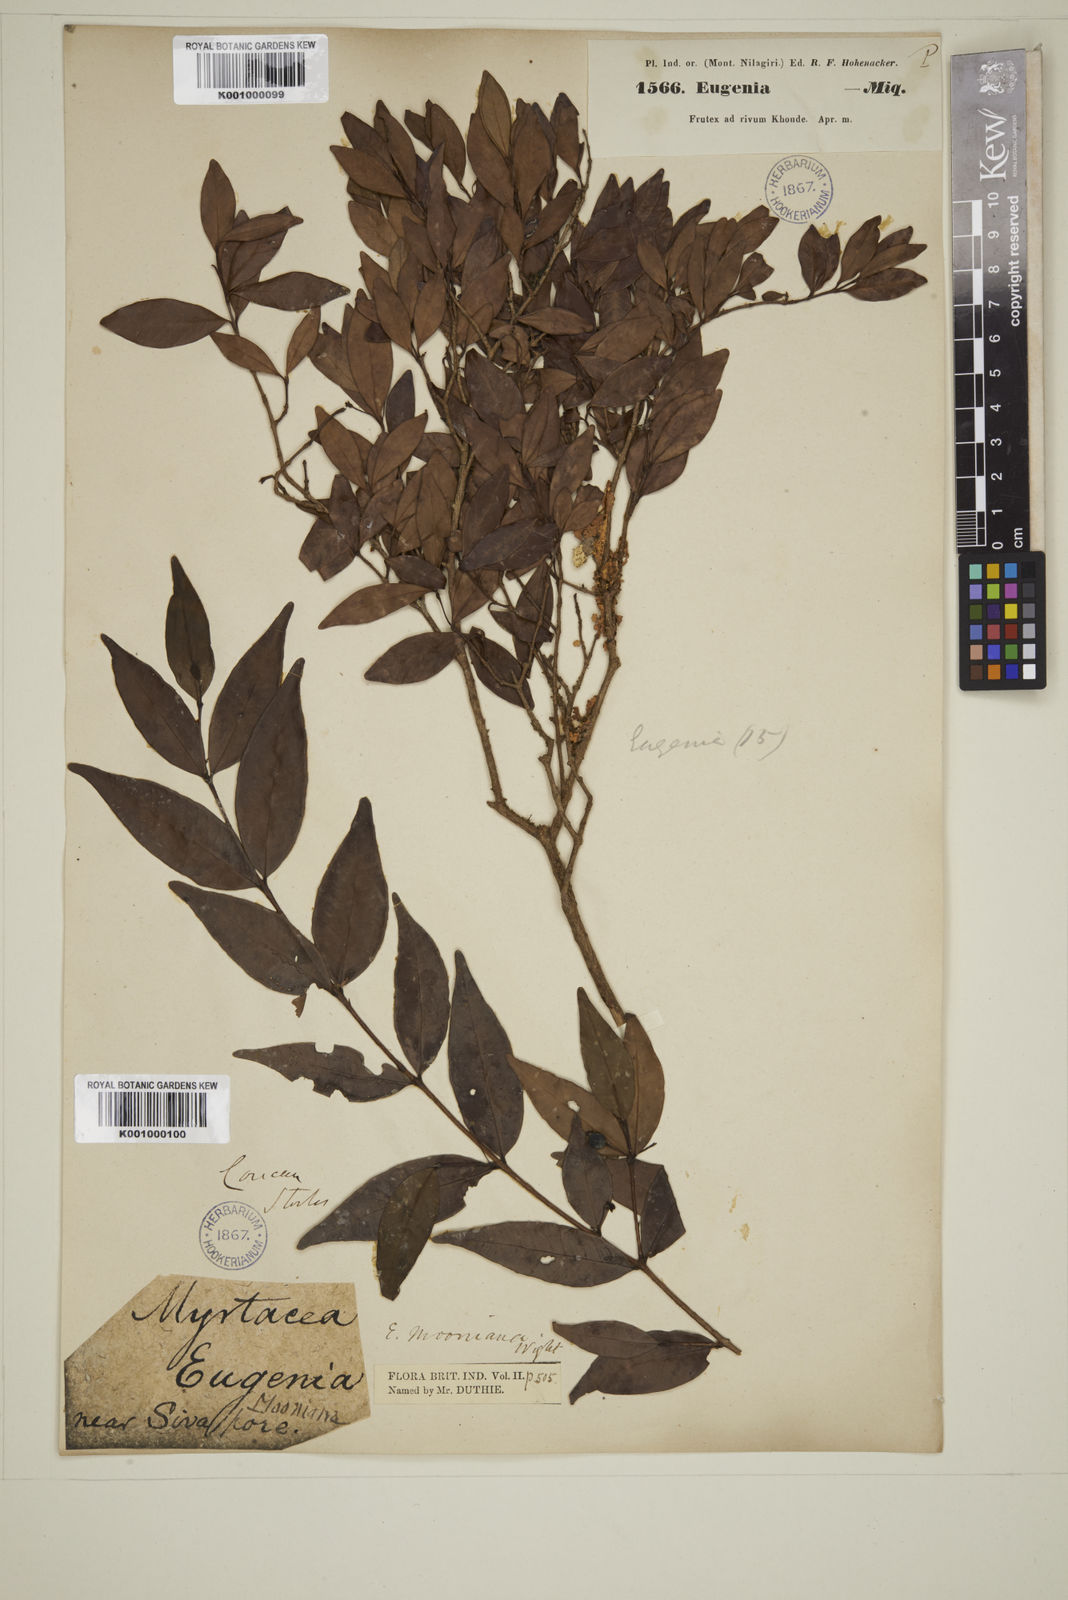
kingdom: Plantae
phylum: Tracheophyta
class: Magnoliopsida
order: Myrtales
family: Myrtaceae
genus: Eugenia
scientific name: Eugenia thwaitesii
